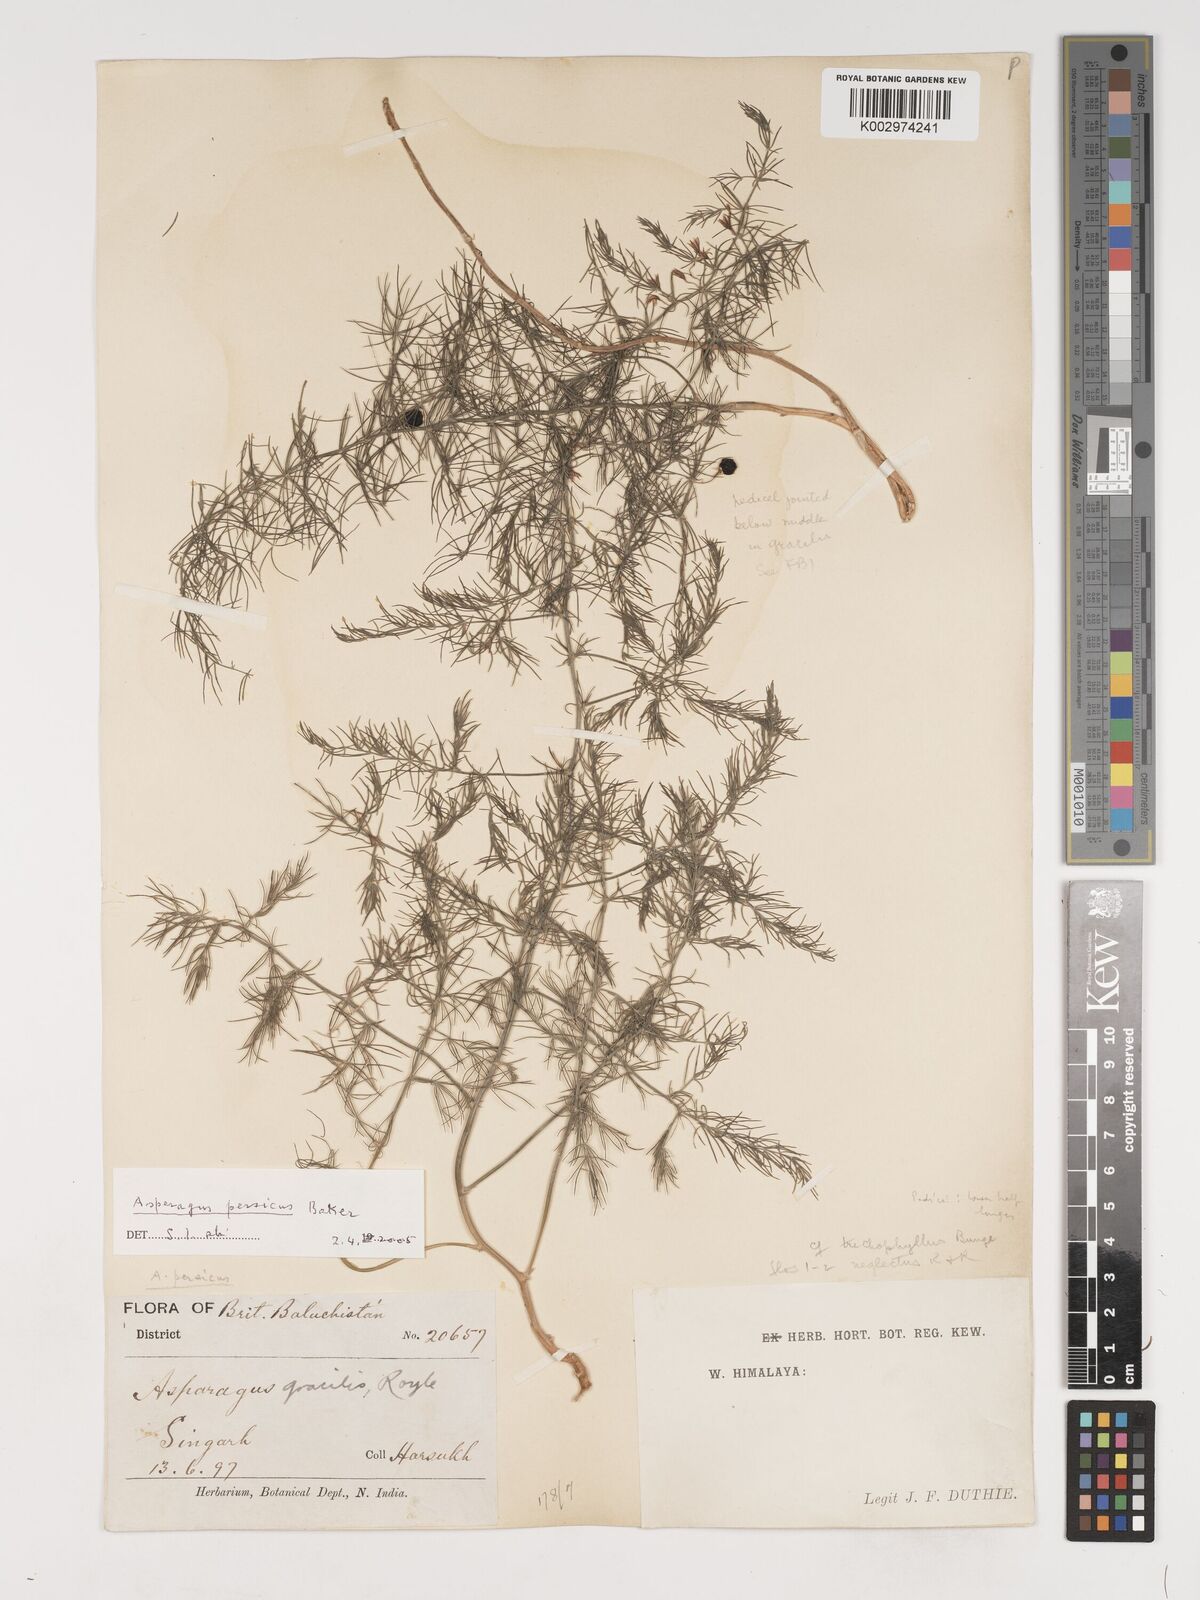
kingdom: Plantae
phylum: Tracheophyta
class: Liliopsida
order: Asparagales
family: Asparagaceae
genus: Asparagus
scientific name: Asparagus persicus
